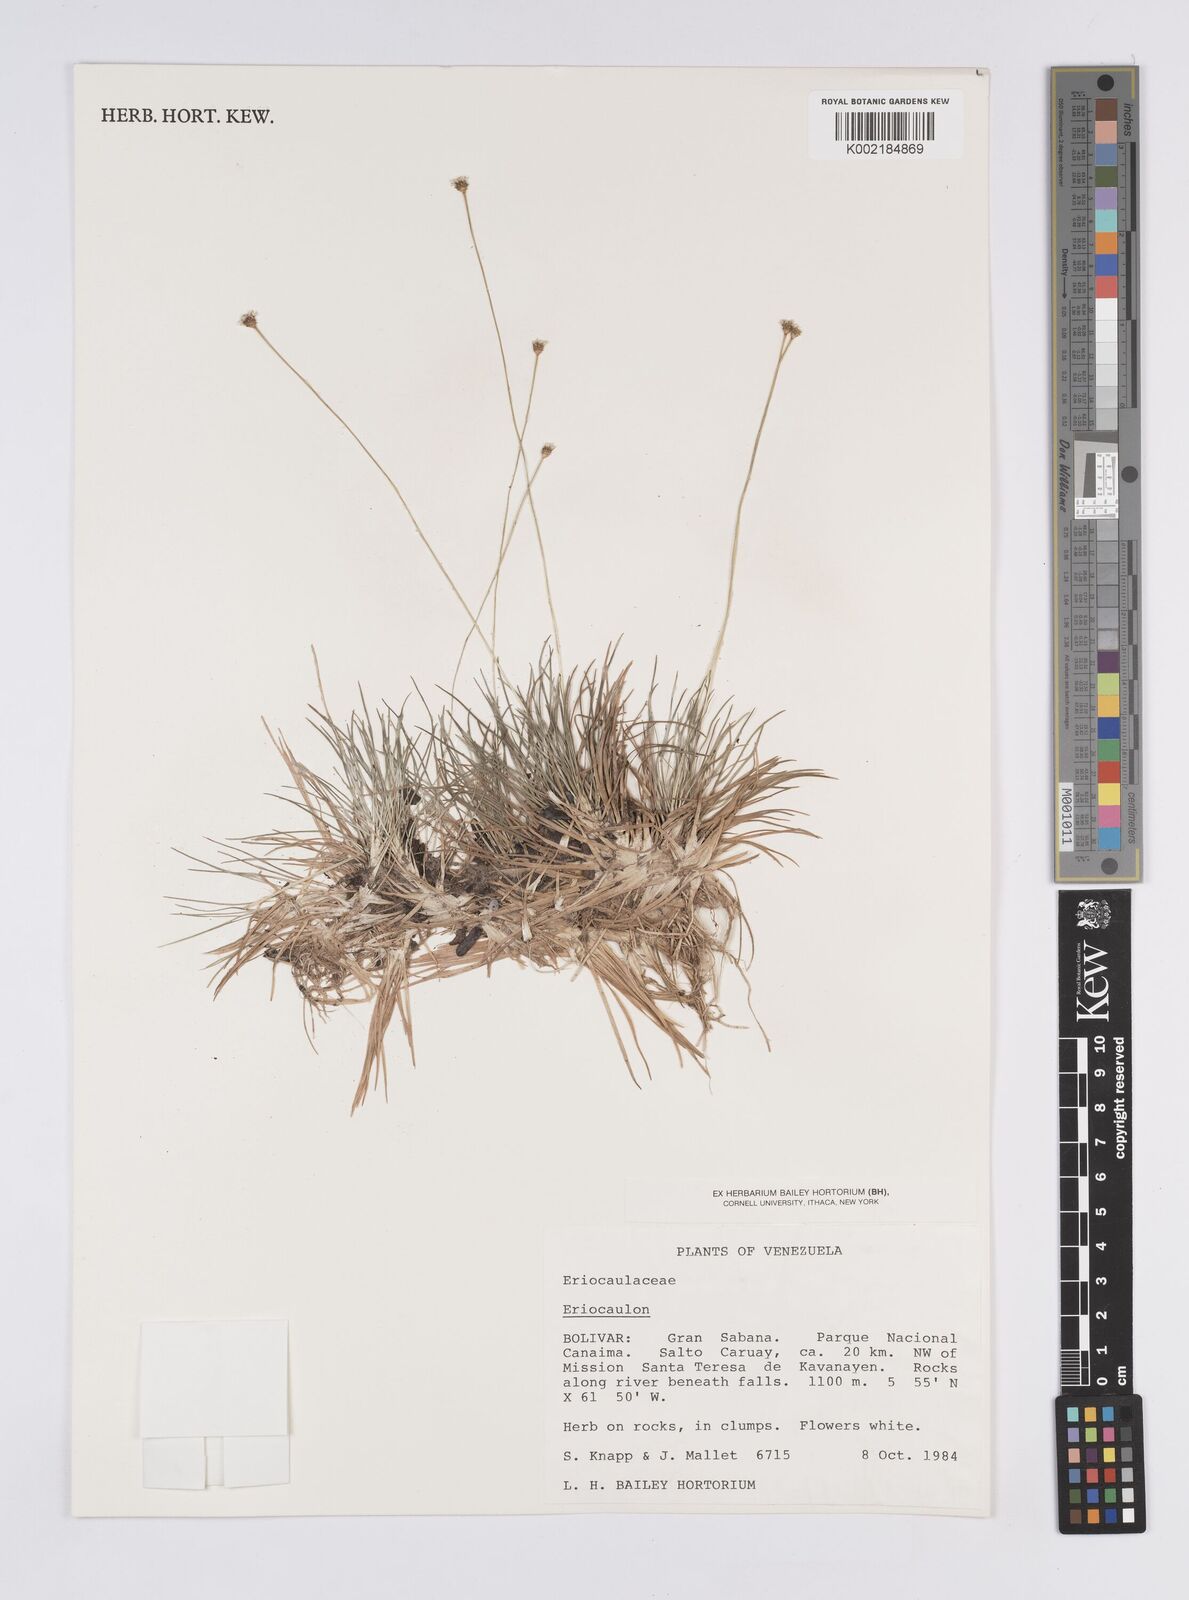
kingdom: Plantae
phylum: Tracheophyta
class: Liliopsida
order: Poales
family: Eriocaulaceae
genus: Eriocaulon
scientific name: Eriocaulon
